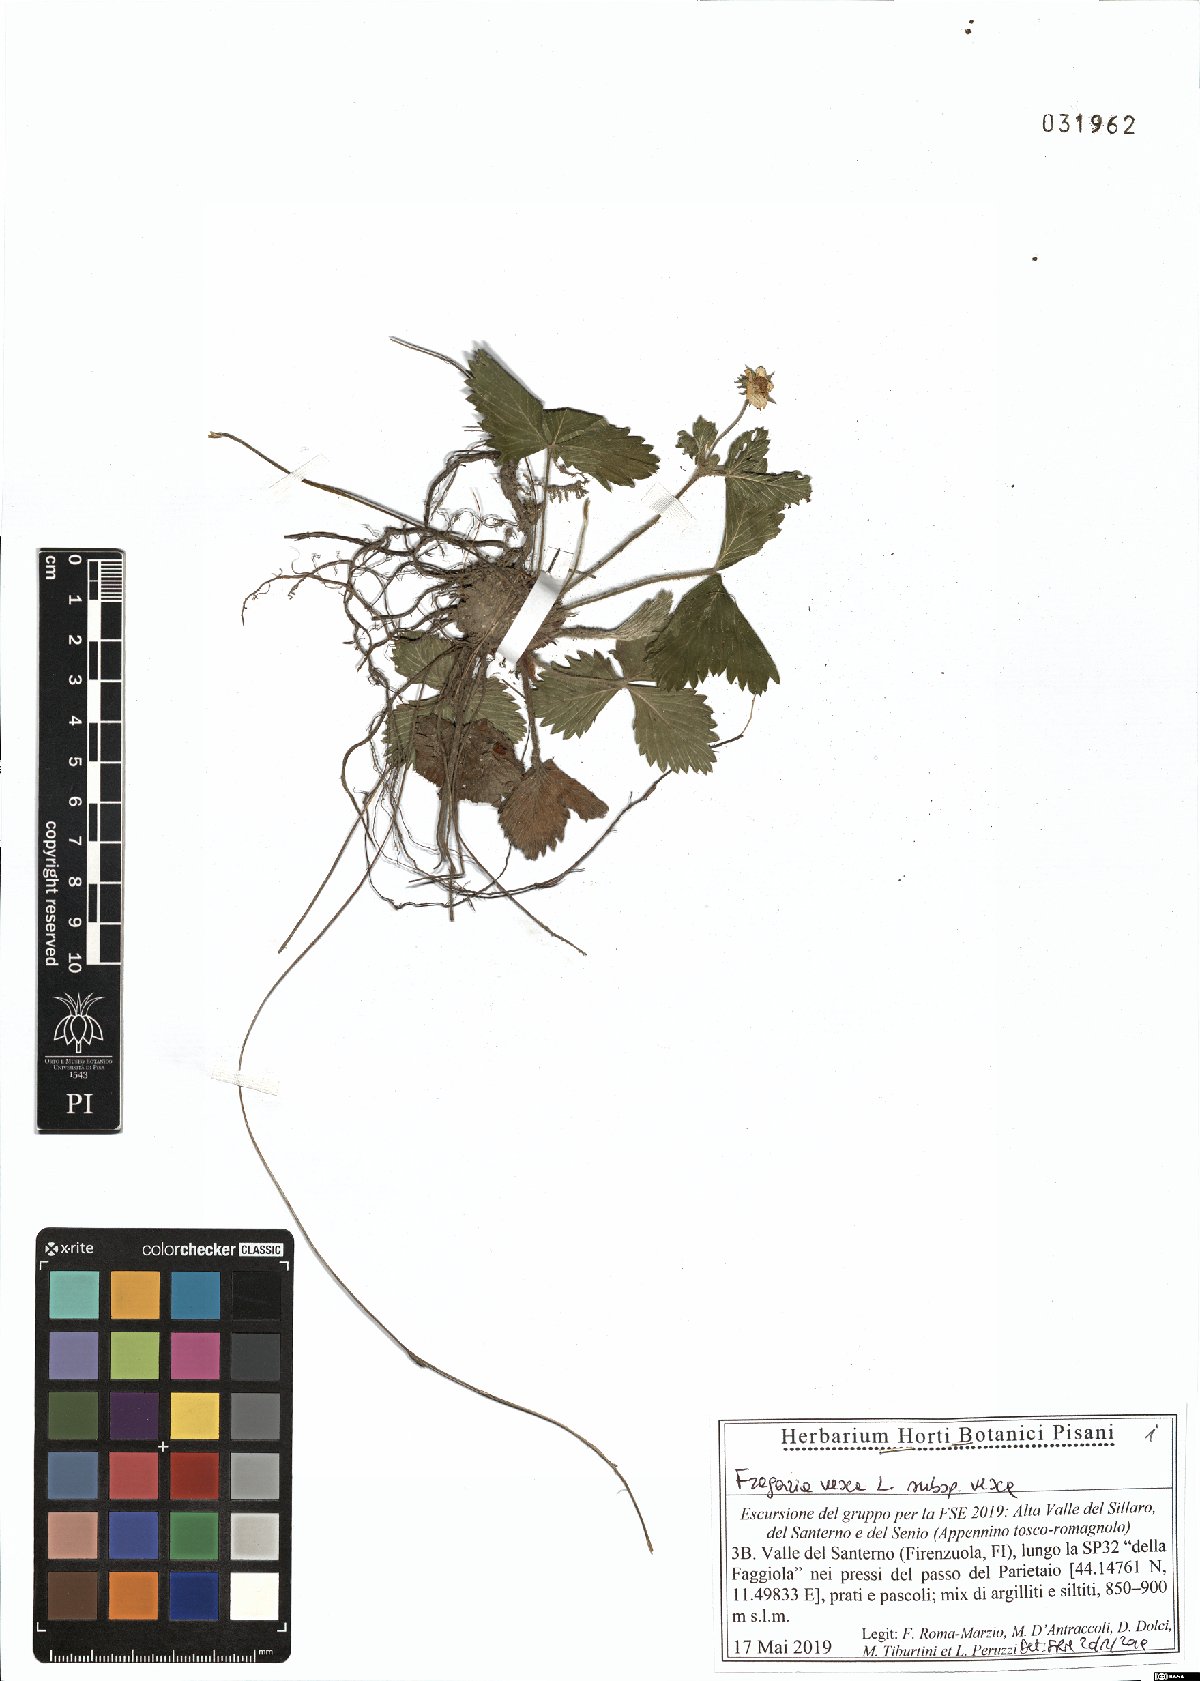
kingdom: Plantae
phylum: Tracheophyta
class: Magnoliopsida
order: Rosales
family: Rosaceae
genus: Fragaria
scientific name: Fragaria vesca
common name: Wild strawberry
